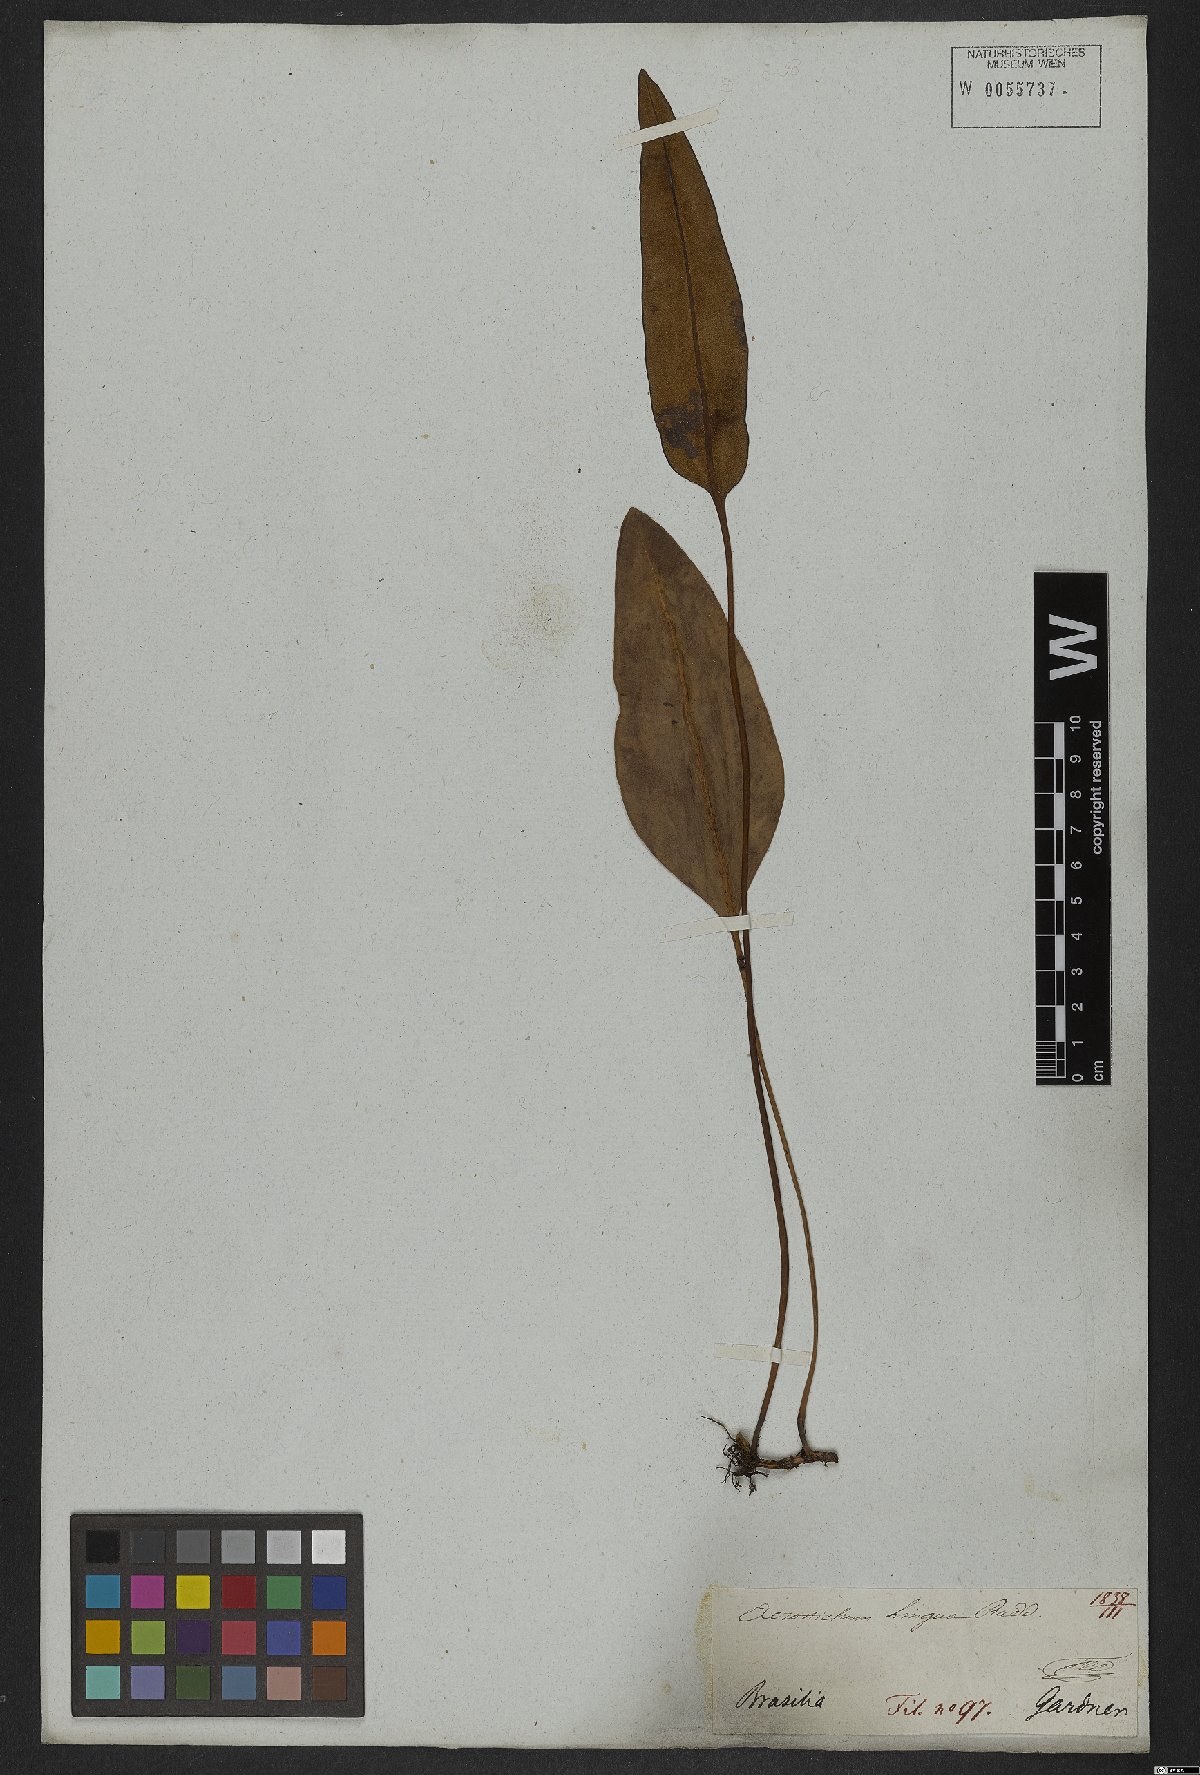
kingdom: Plantae
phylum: Tracheophyta
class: Polypodiopsida
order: Polypodiales
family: Dryopteridaceae
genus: Elaphoglossum
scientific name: Elaphoglossum brachyneuron
